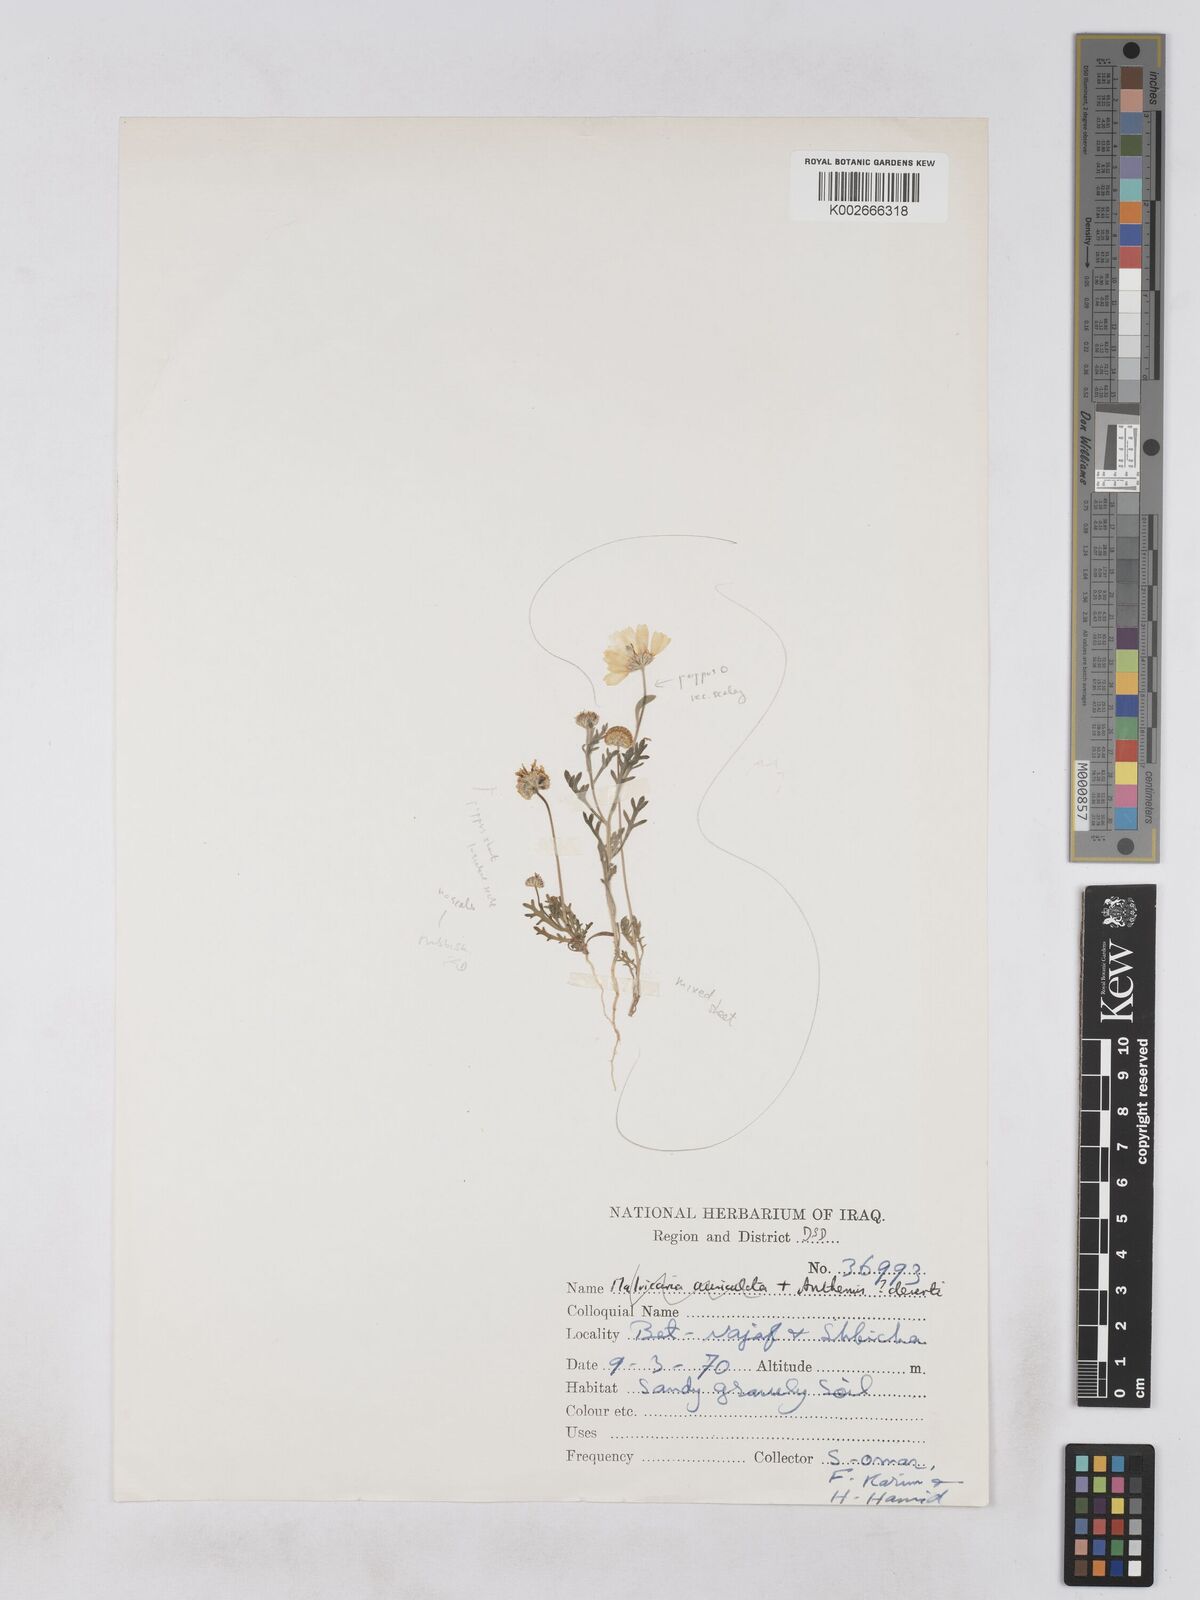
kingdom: Plantae
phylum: Tracheophyta
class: Magnoliopsida
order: Asterales
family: Asteraceae
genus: Otoglyphis
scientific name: Otoglyphis factorovskyi
